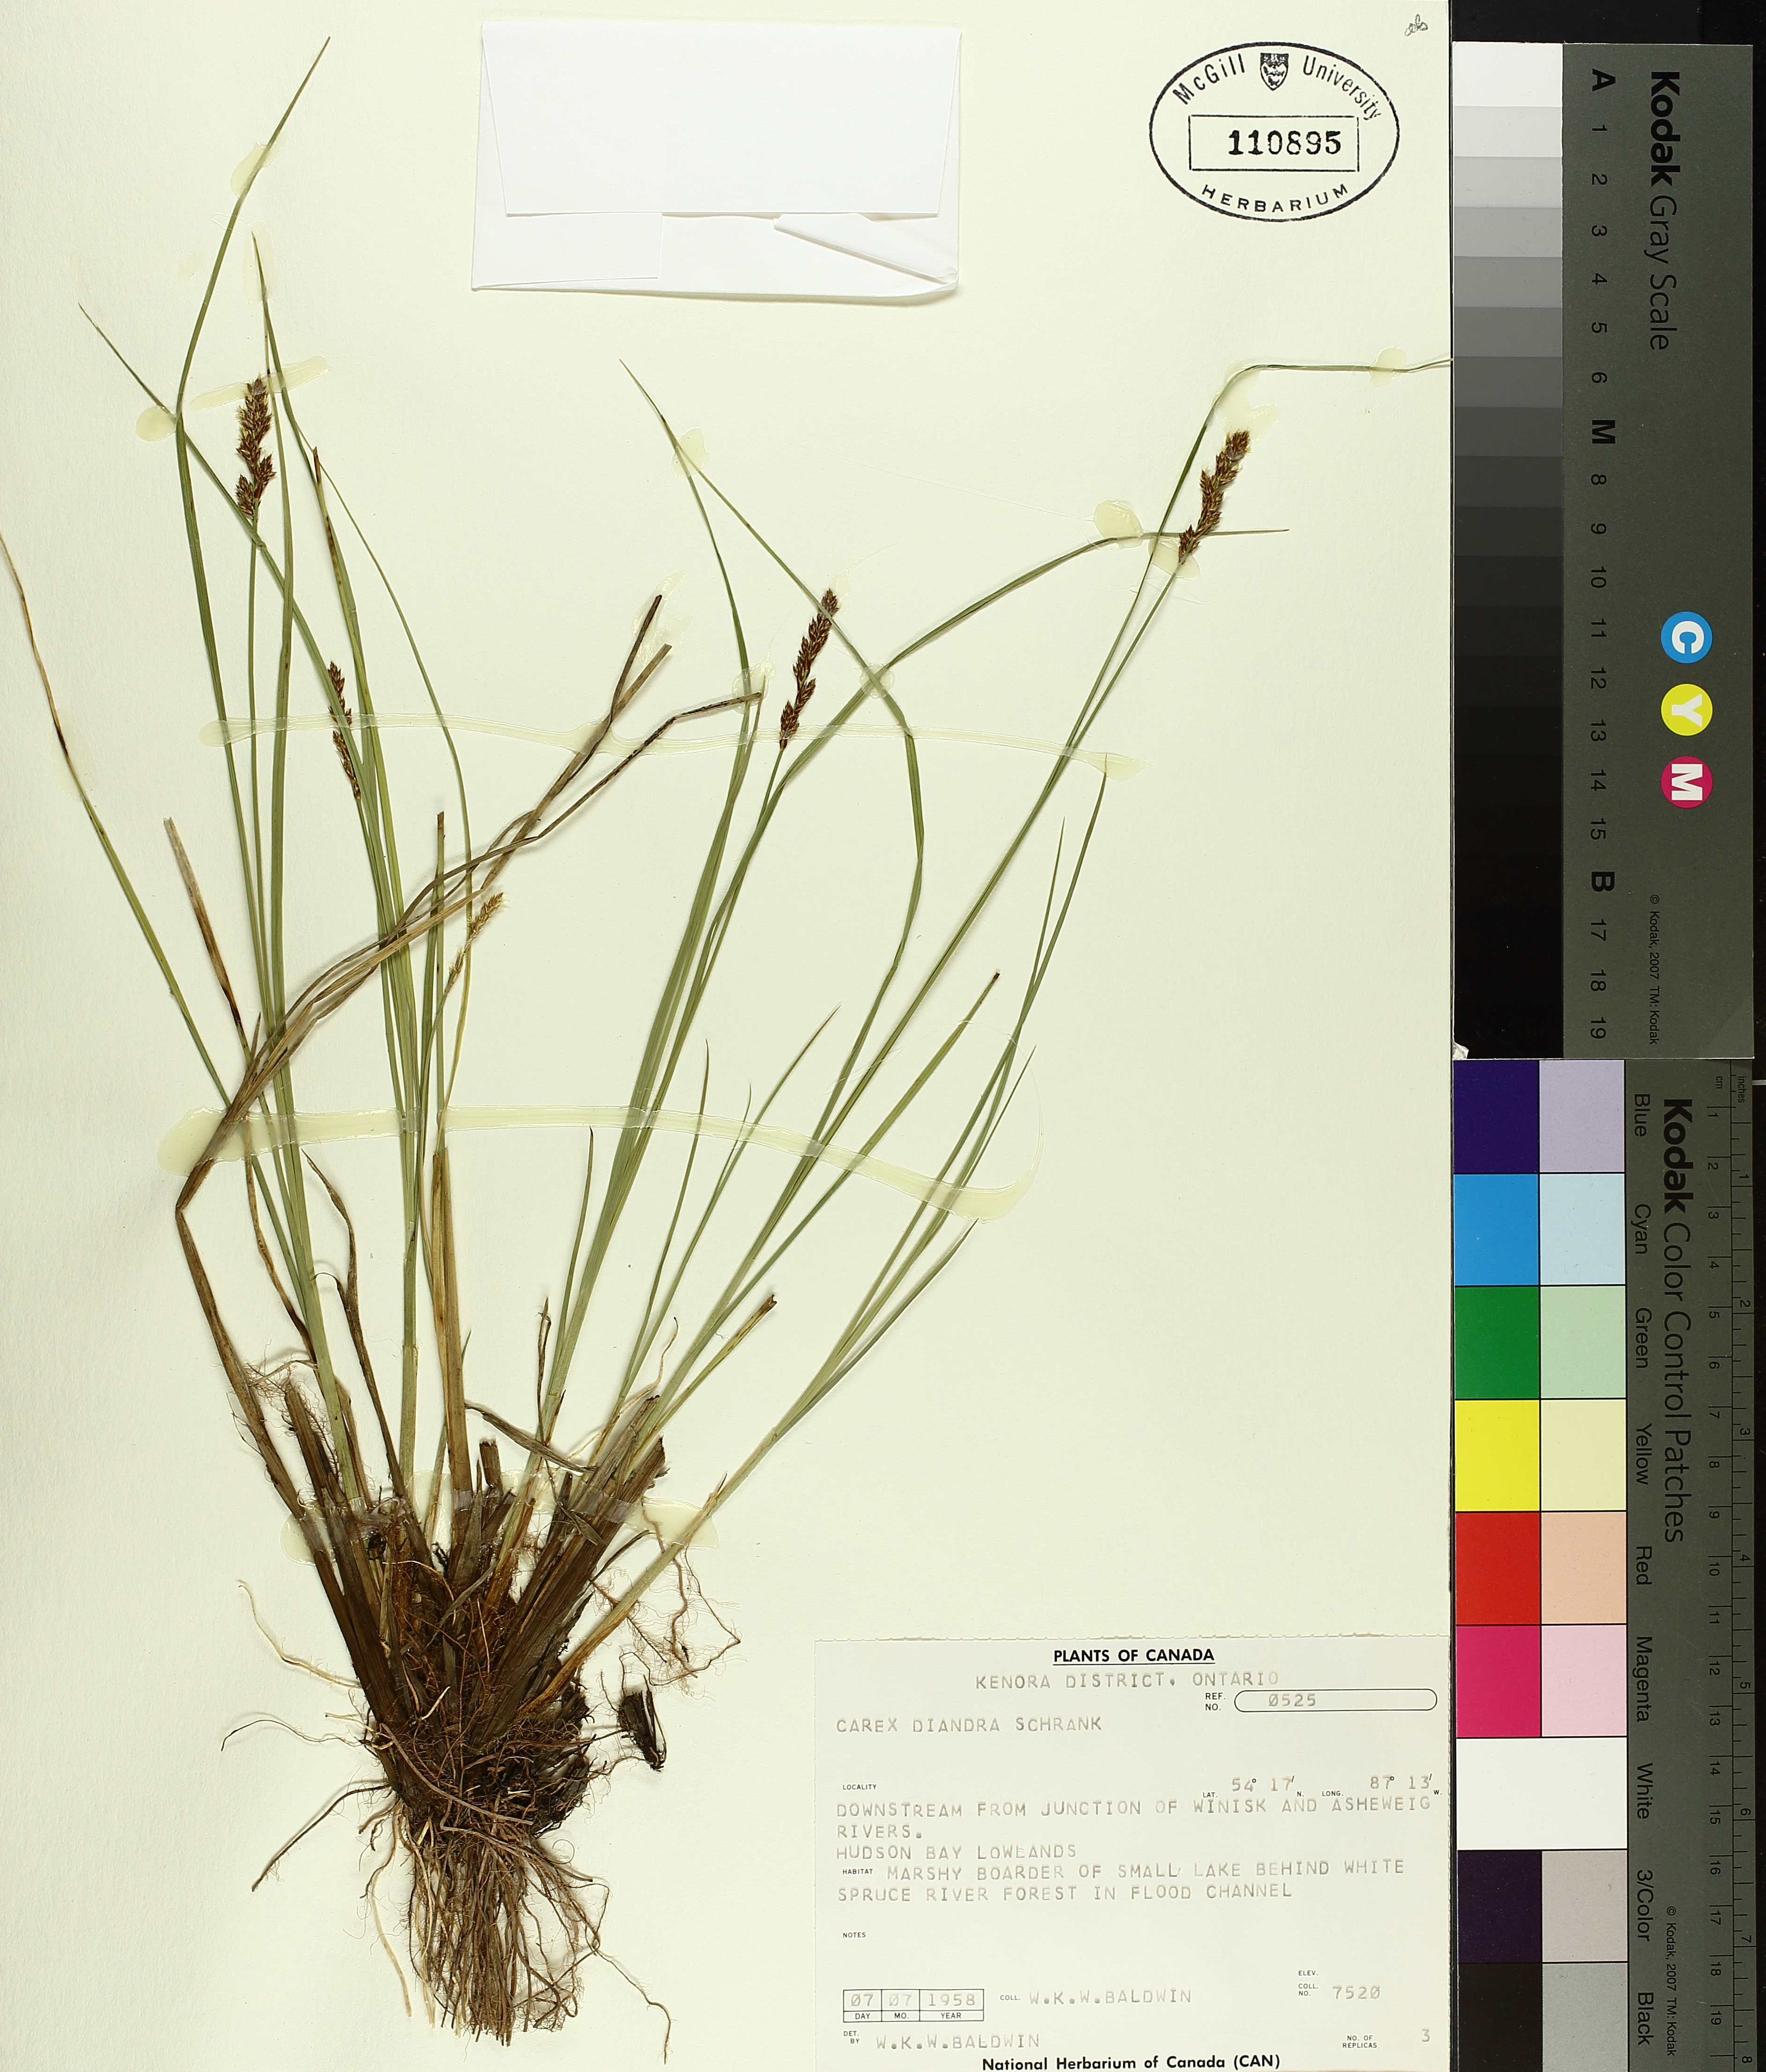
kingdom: Plantae
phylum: Tracheophyta
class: Liliopsida
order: Poales
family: Cyperaceae
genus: Carex
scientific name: Carex diandra
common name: Lesser tussock-sedge
